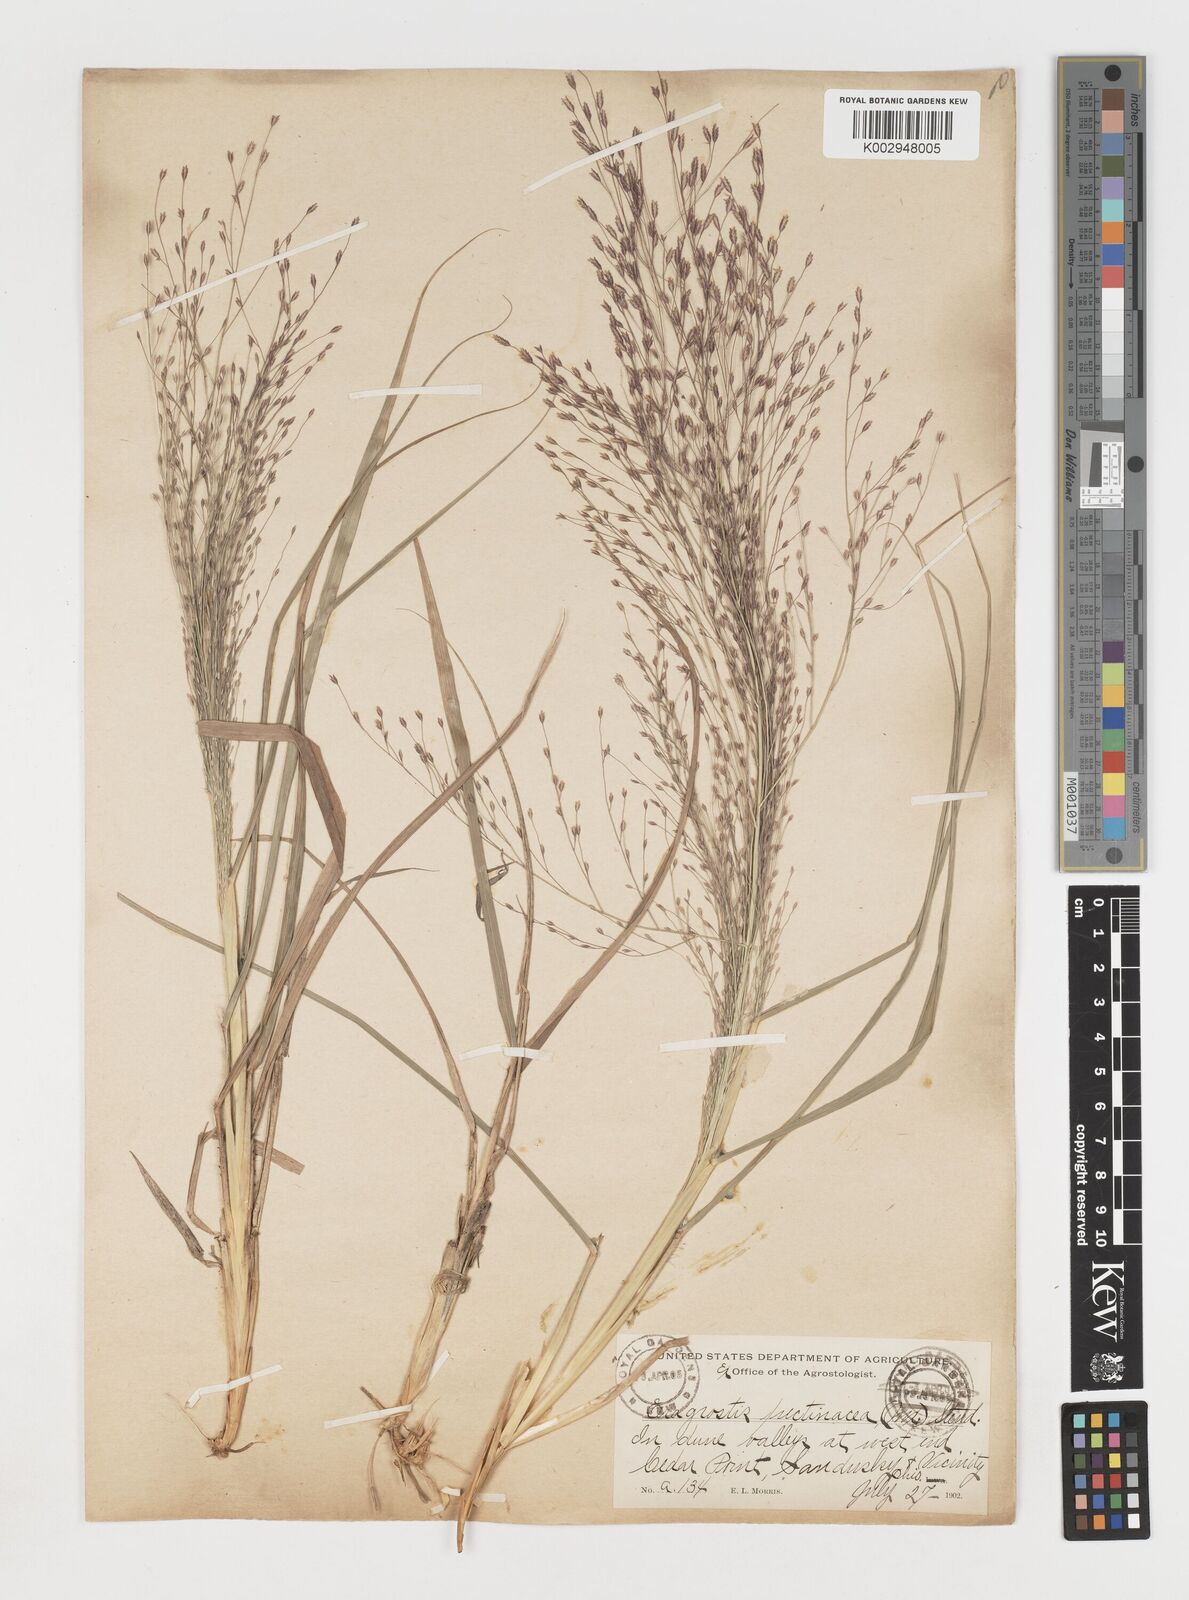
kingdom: Plantae
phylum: Tracheophyta
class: Liliopsida
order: Poales
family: Poaceae
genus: Eragrostis
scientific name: Eragrostis spectabilis
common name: Petticoat-climber
